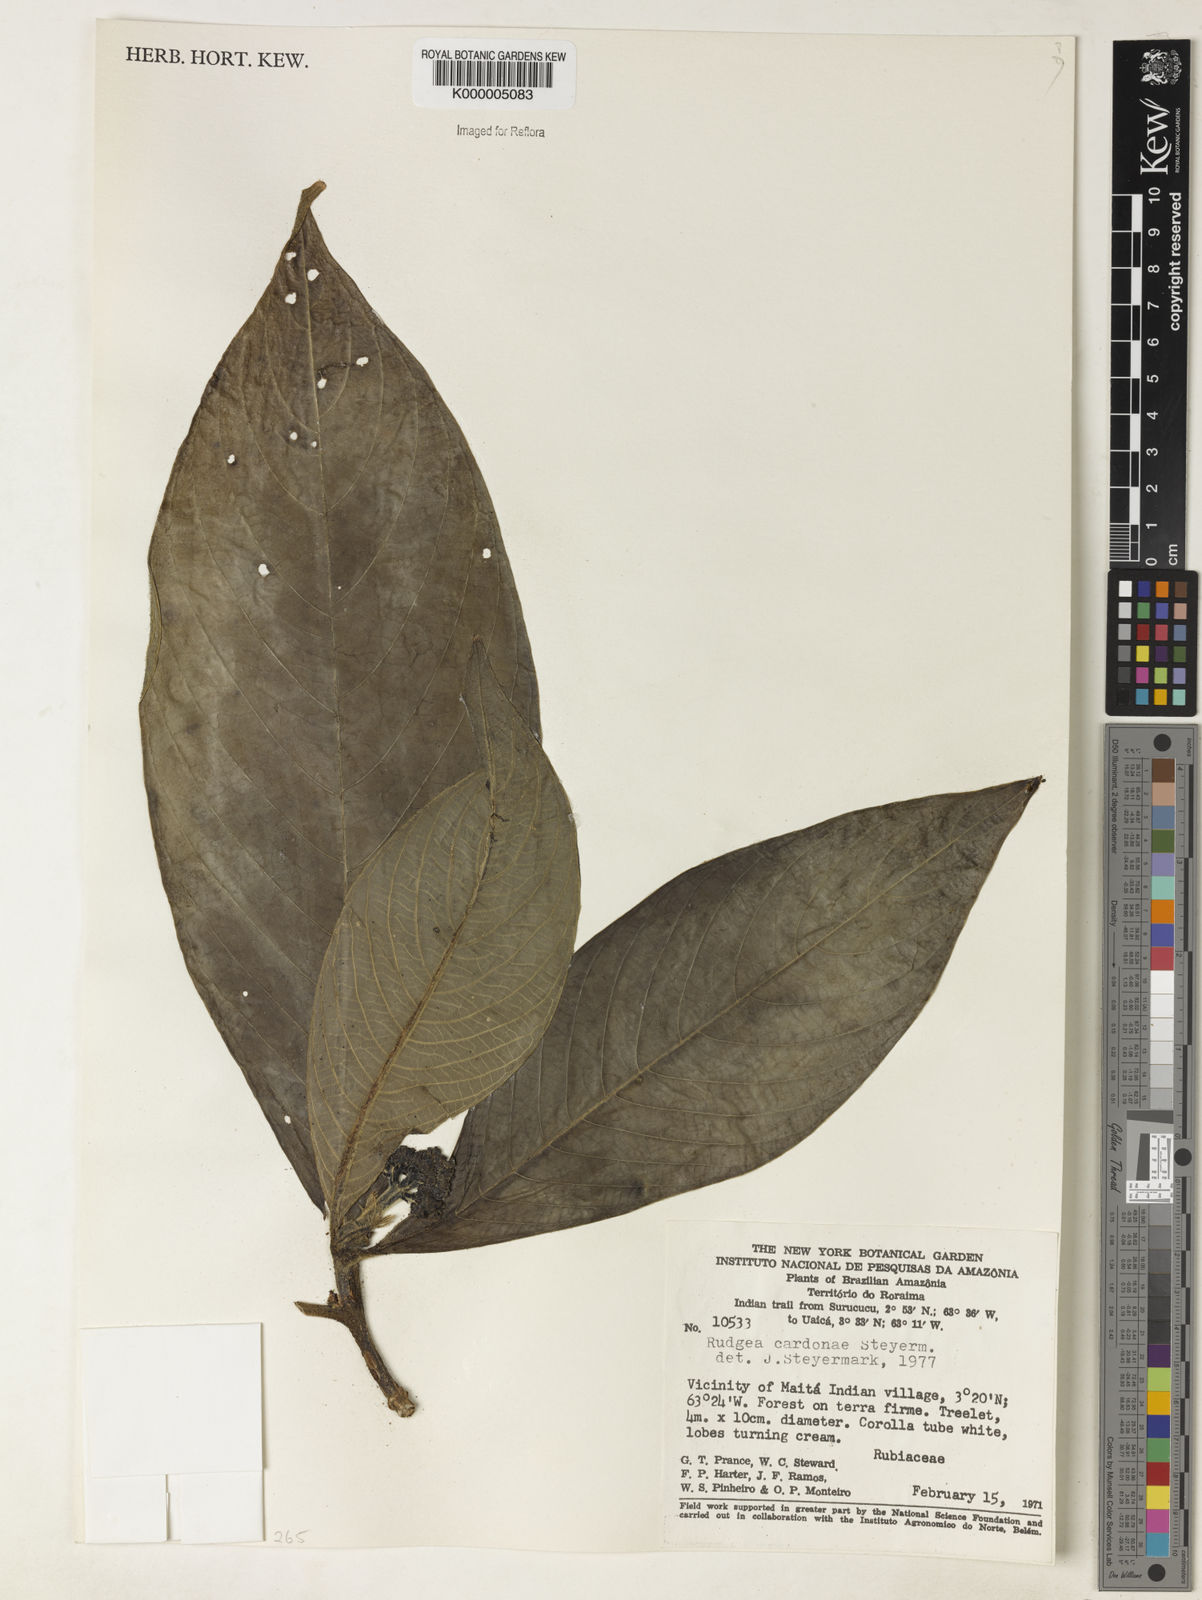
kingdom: Plantae
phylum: Tracheophyta
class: Magnoliopsida
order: Gentianales
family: Rubiaceae
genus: Rudgea
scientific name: Rudgea longiflora
